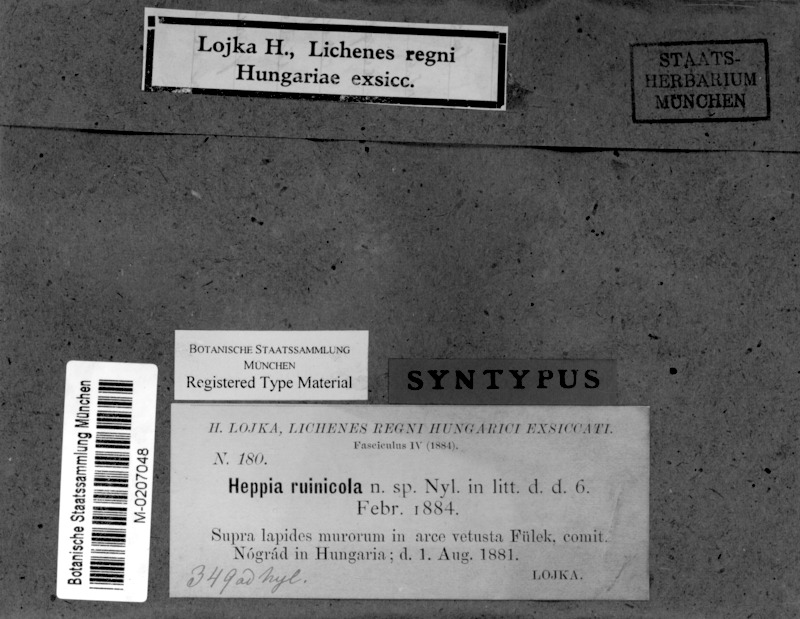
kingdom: Fungi
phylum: Ascomycota
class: Lichinomycetes
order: Lichinales
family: Peltulaceae
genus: Peltula
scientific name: Peltula euploca
